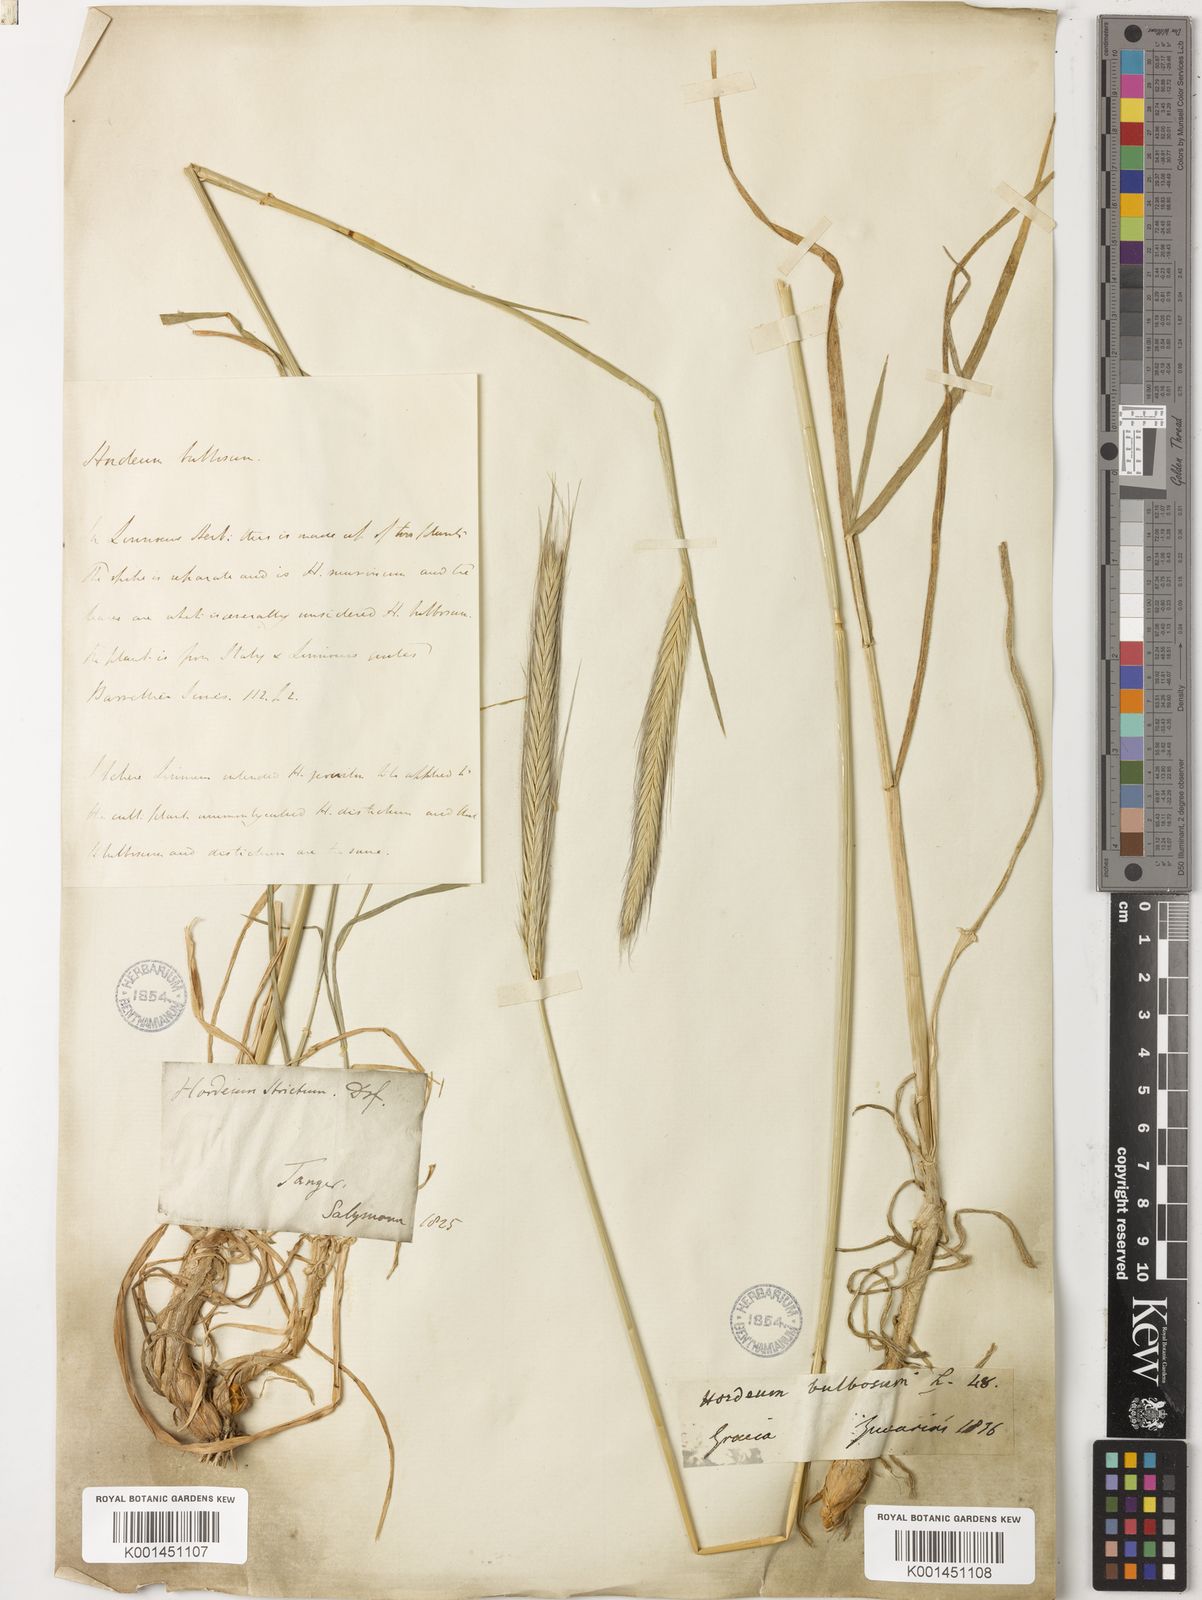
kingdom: Plantae
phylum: Tracheophyta
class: Liliopsida
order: Poales
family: Poaceae
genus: Hordeum
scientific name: Hordeum bulbosum
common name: Bulbous barley
